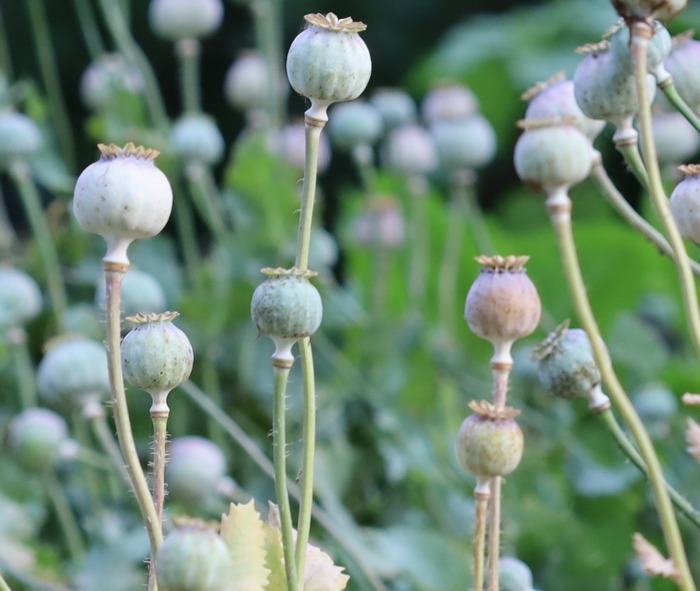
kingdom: Plantae
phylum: Tracheophyta
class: Magnoliopsida
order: Ranunculales
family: Papaveraceae
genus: Papaver
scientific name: Papaver somniferum
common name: Opium-valmue
